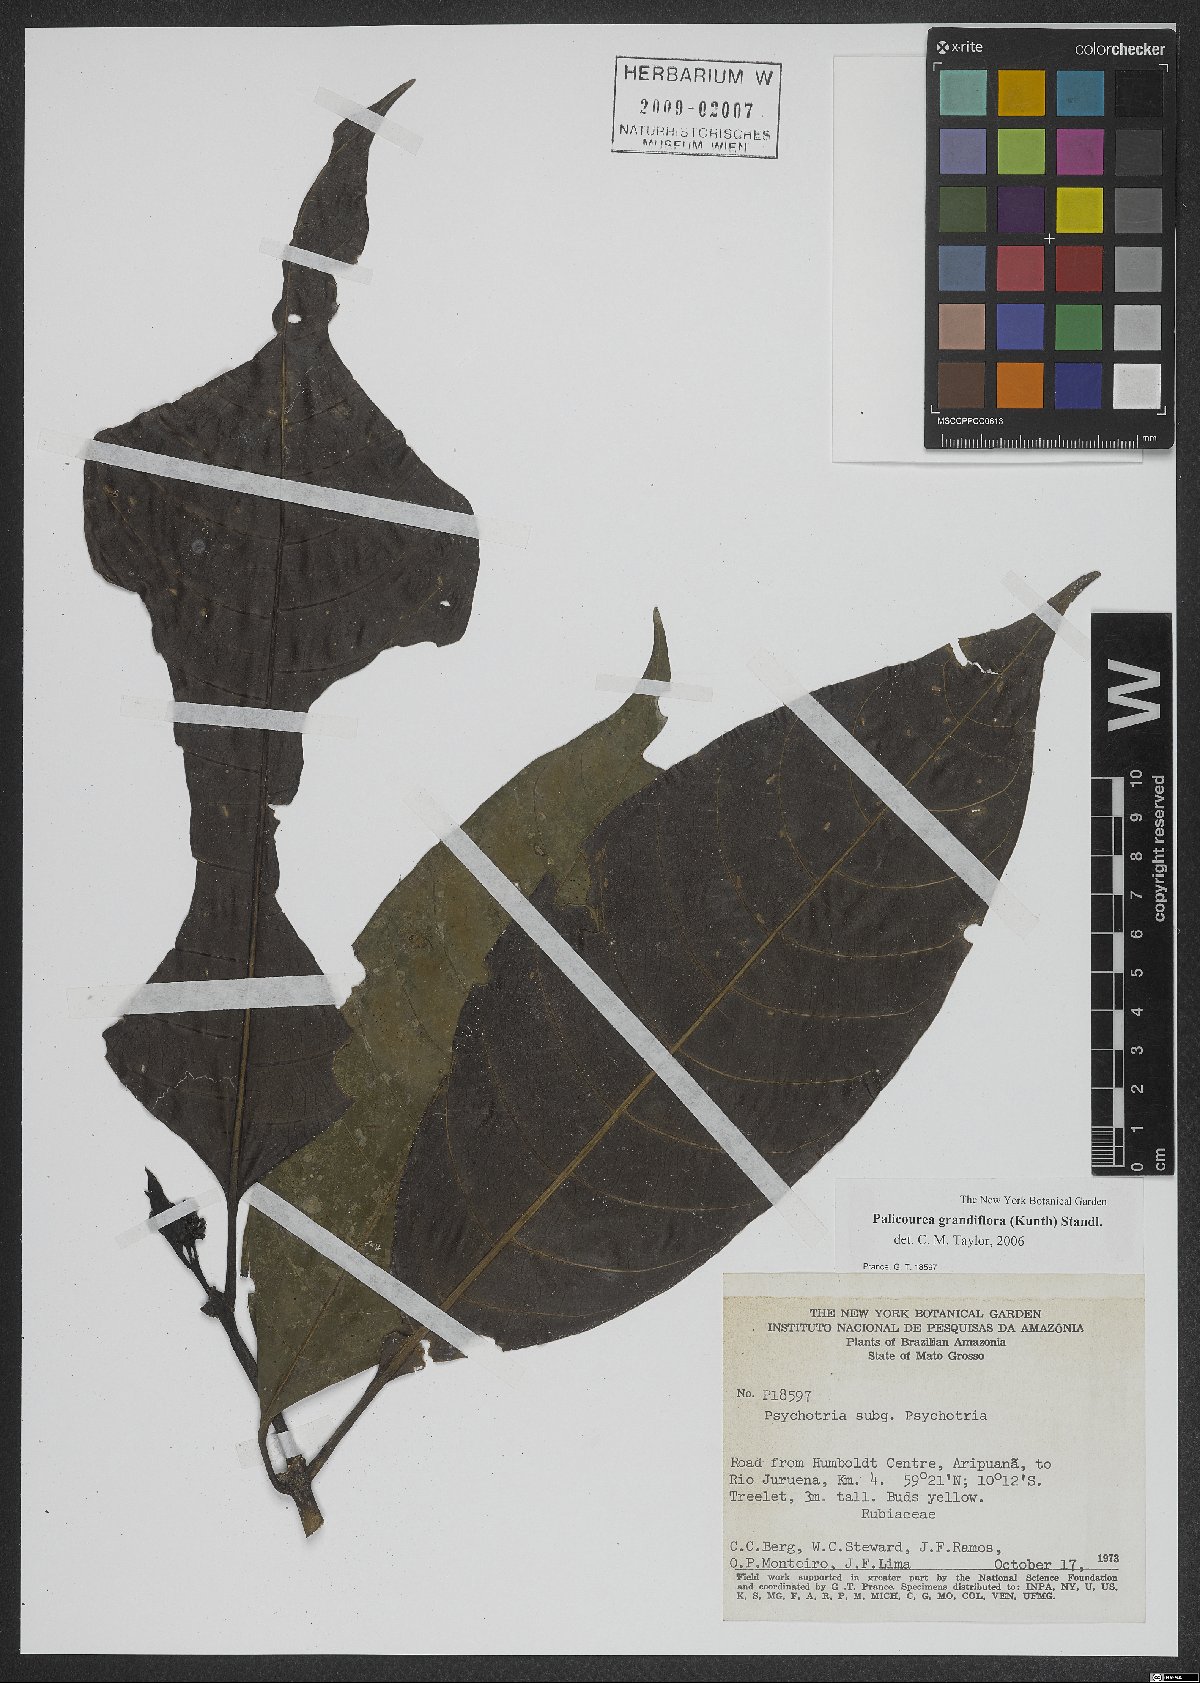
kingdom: Plantae
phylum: Tracheophyta
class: Magnoliopsida
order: Gentianales
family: Rubiaceae
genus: Palicourea
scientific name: Palicourea grandifolia
